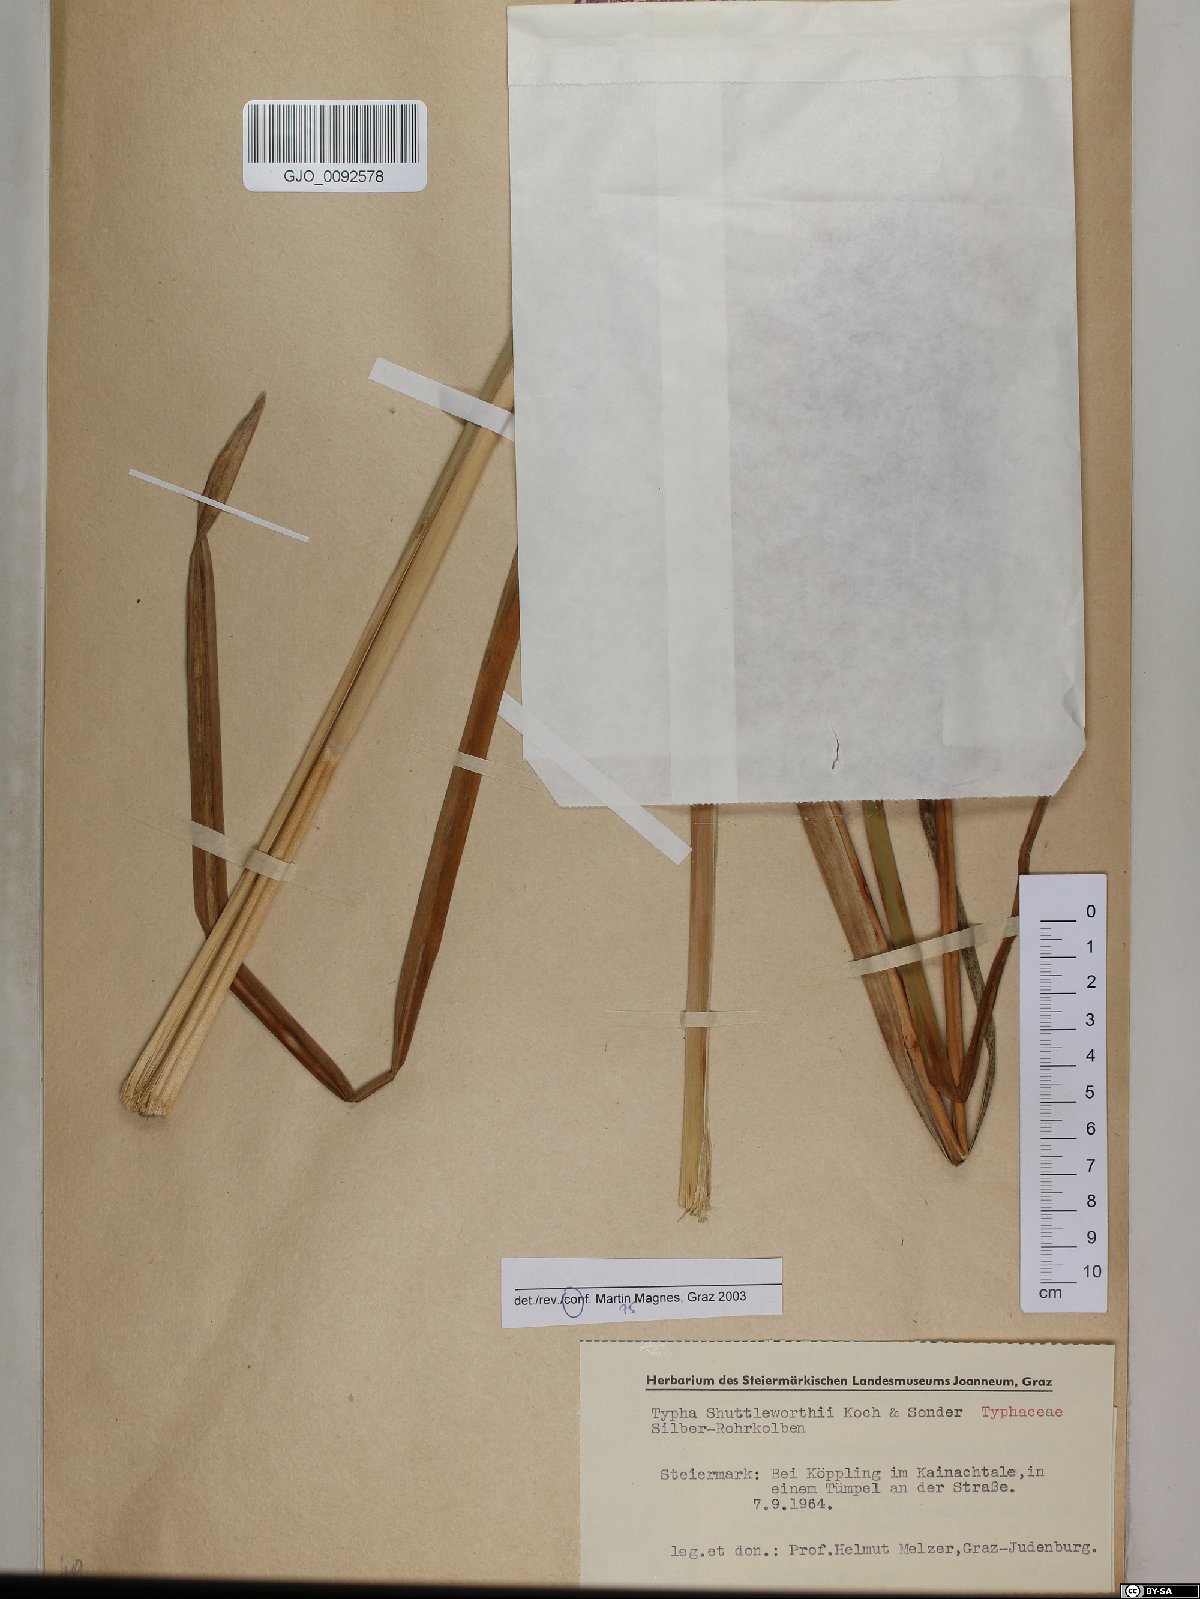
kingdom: Plantae
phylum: Tracheophyta
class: Liliopsida
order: Poales
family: Typhaceae
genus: Typha
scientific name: Typha shuttleworthii
